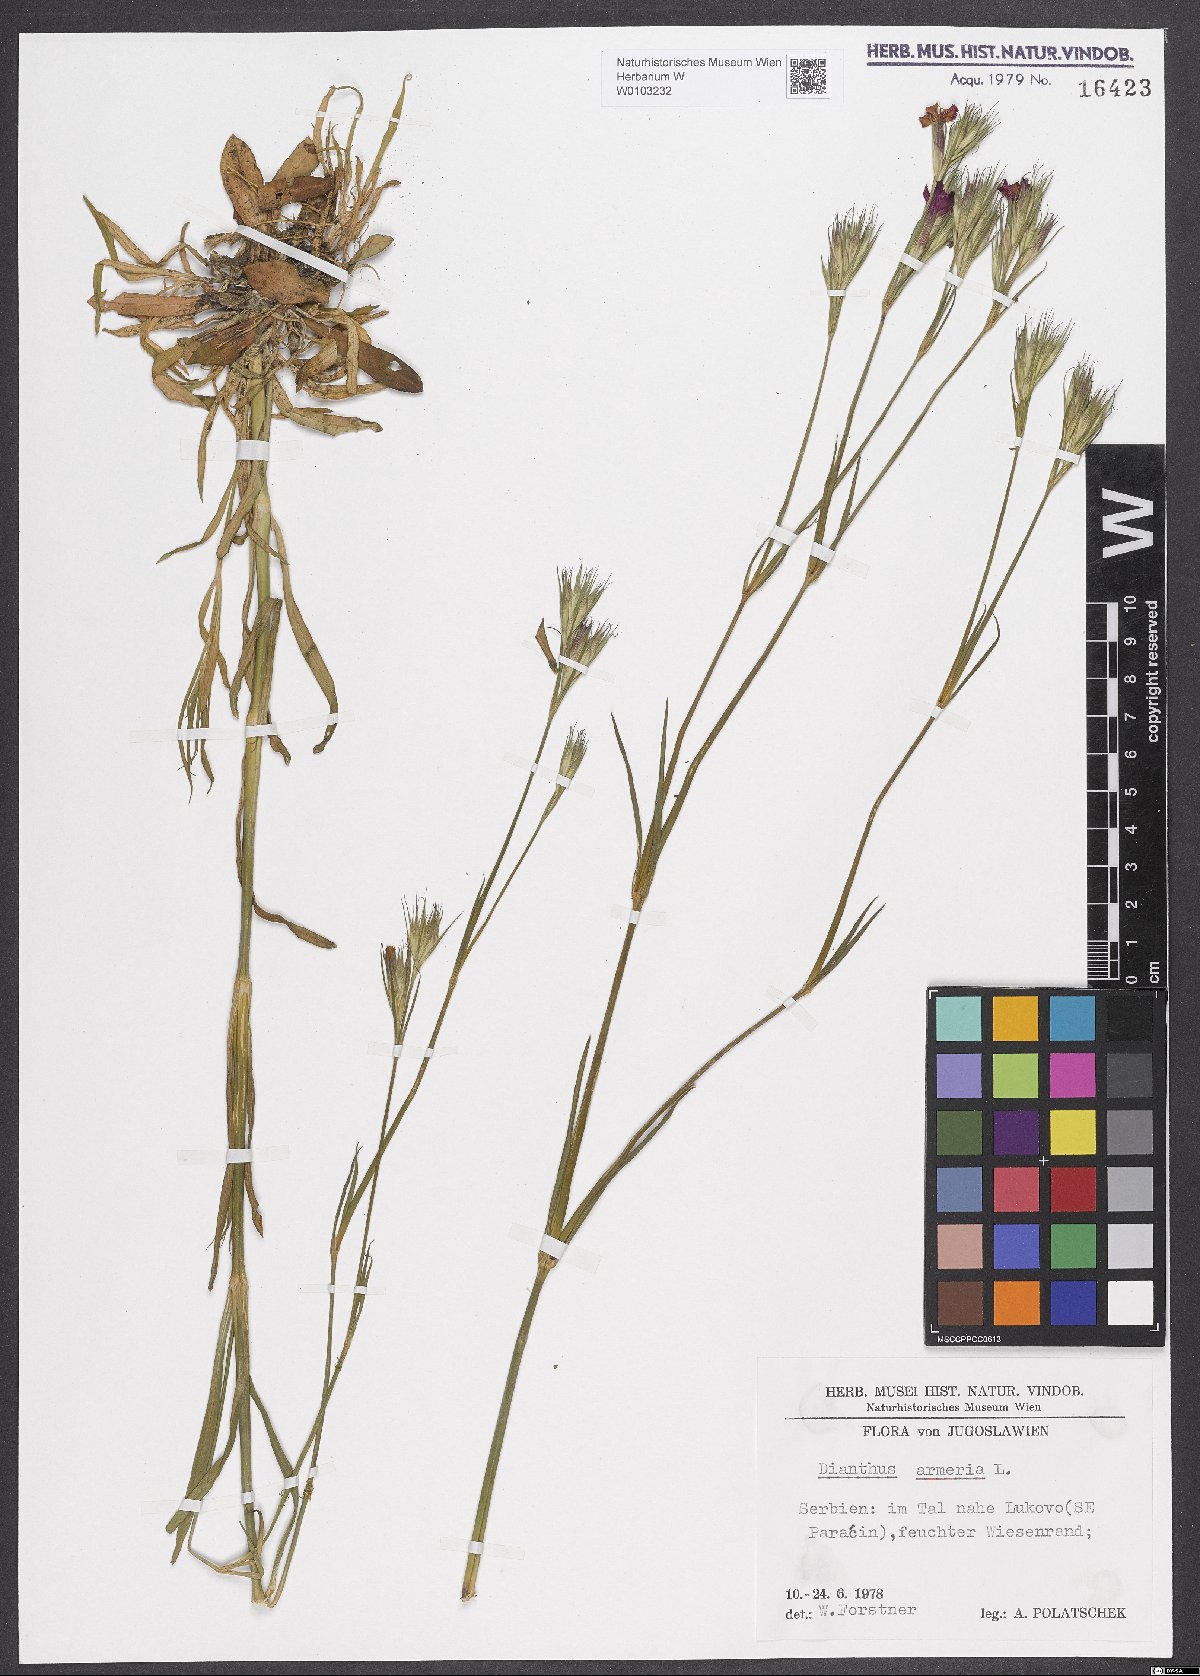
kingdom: Plantae
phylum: Tracheophyta
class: Magnoliopsida
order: Caryophyllales
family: Caryophyllaceae
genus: Dianthus
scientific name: Dianthus armeria
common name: Deptford pink
